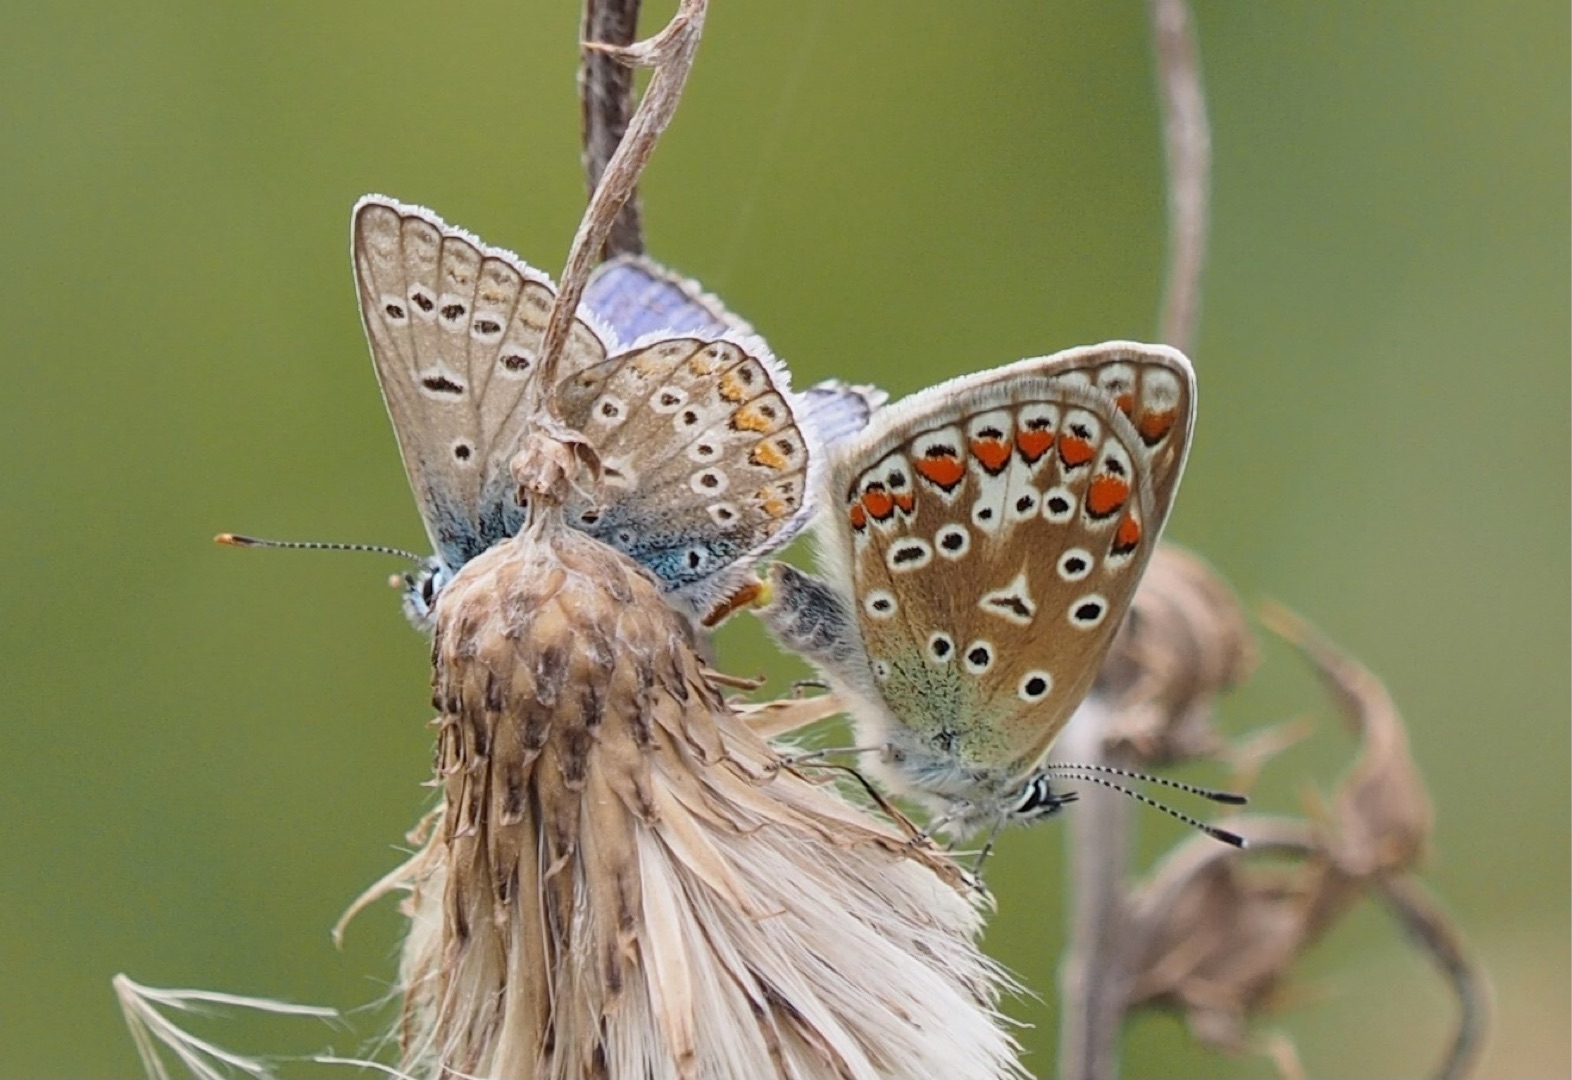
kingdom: Animalia
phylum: Arthropoda
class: Insecta
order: Lepidoptera
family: Lycaenidae
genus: Polyommatus
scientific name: Polyommatus icarus
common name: Almindelig blåfugl
